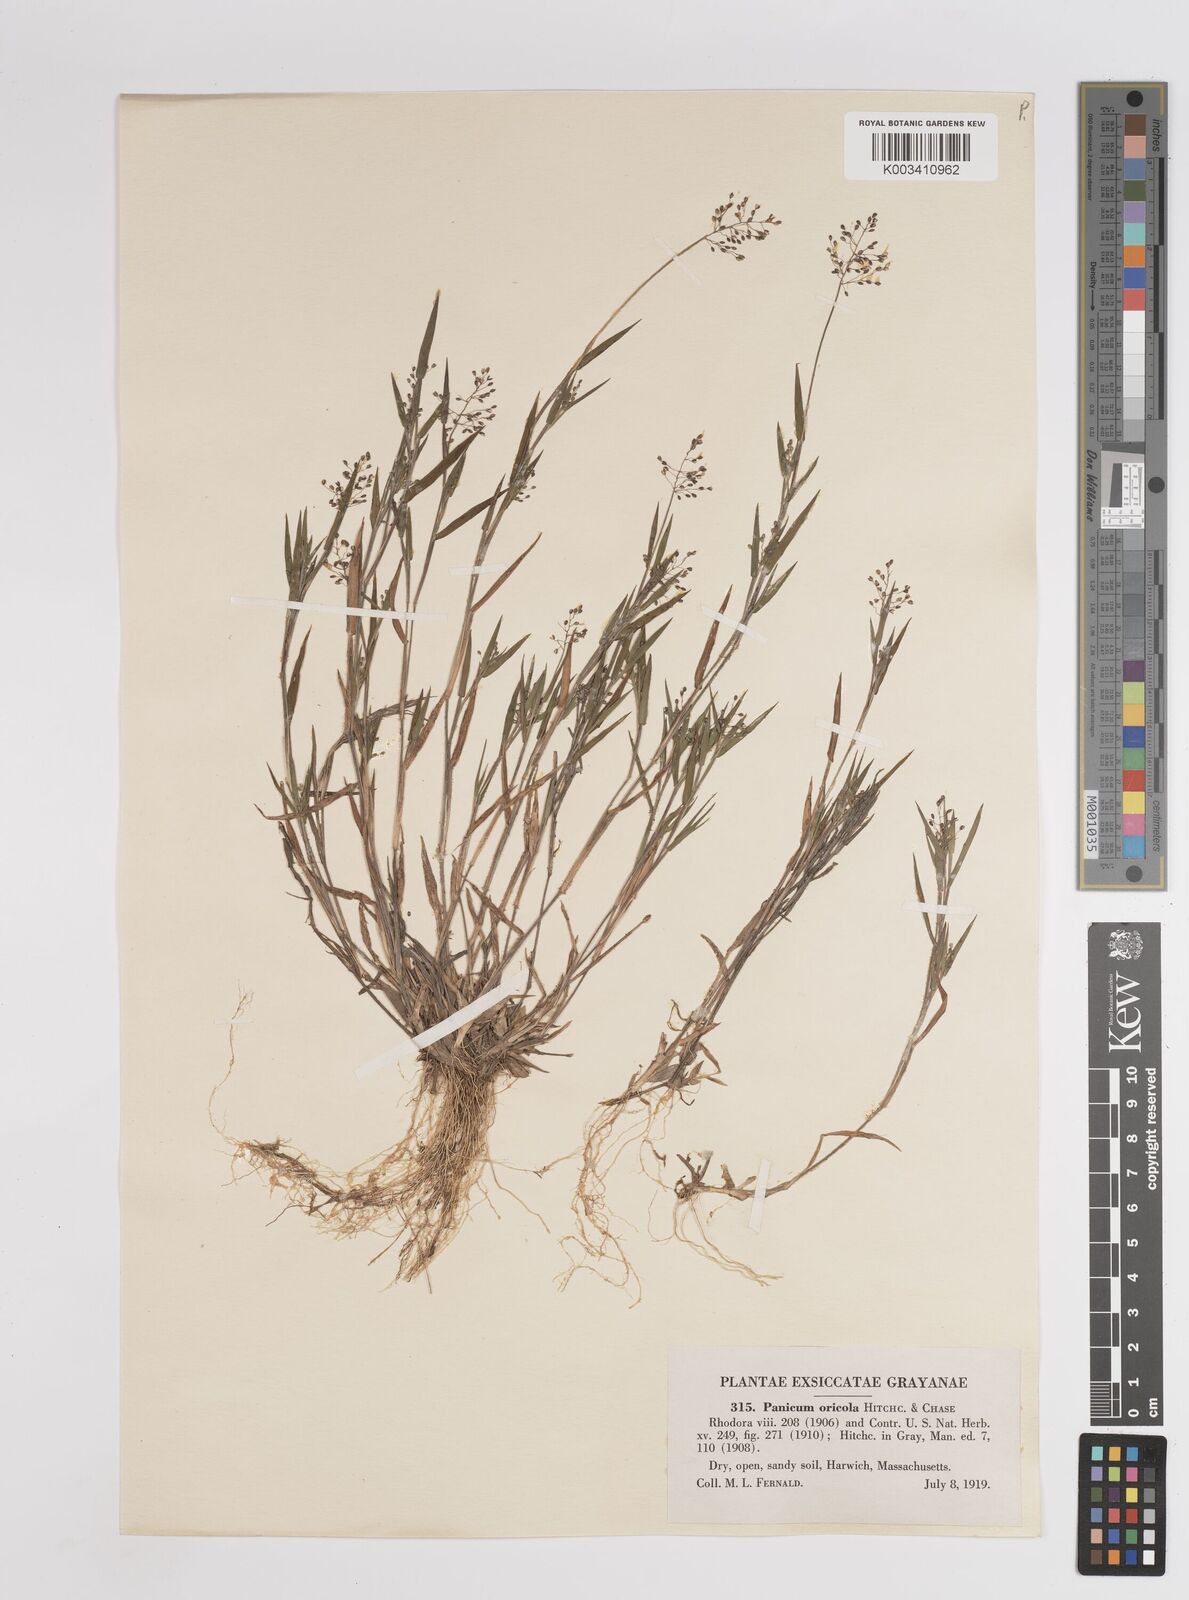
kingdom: Plantae
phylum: Tracheophyta
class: Liliopsida
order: Poales
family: Poaceae
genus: Dichanthelium
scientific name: Dichanthelium columbianum
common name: Hemlock panic grass
